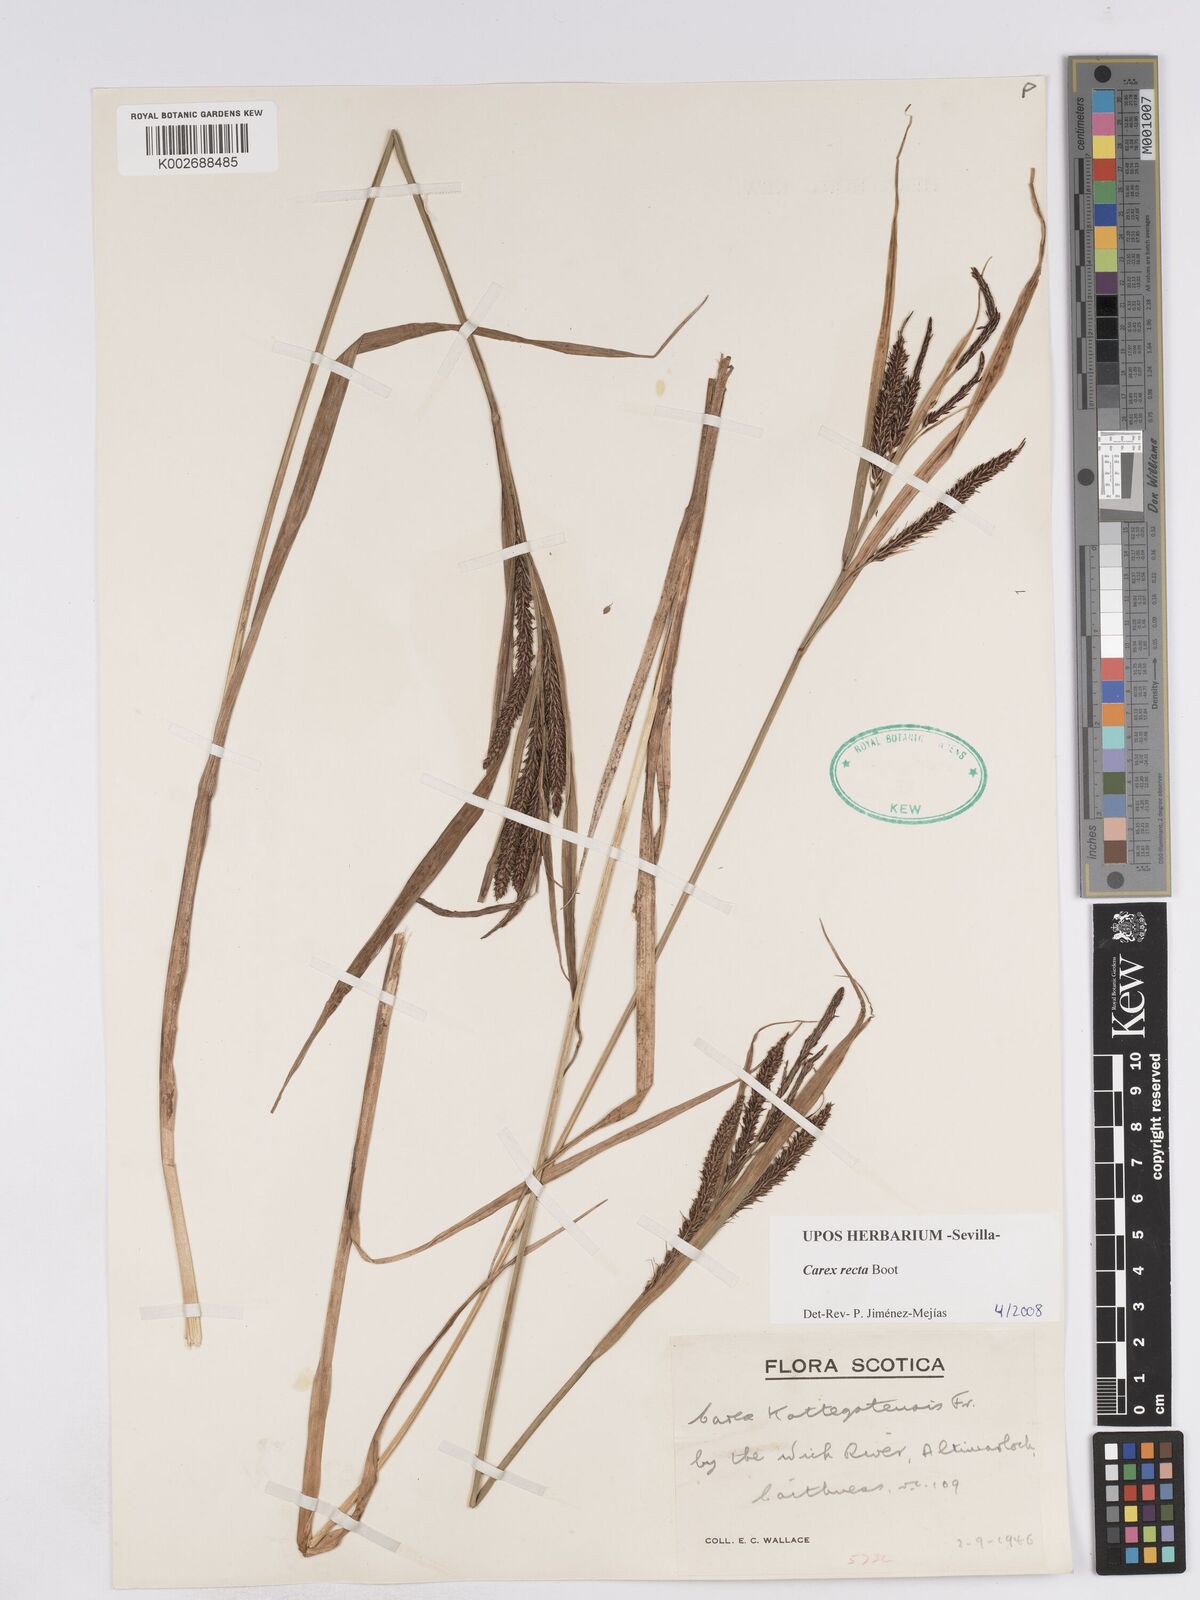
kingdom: Plantae
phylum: Tracheophyta
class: Liliopsida
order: Poales
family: Cyperaceae
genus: Carex
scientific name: Carex recta
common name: Estuarine sedge
